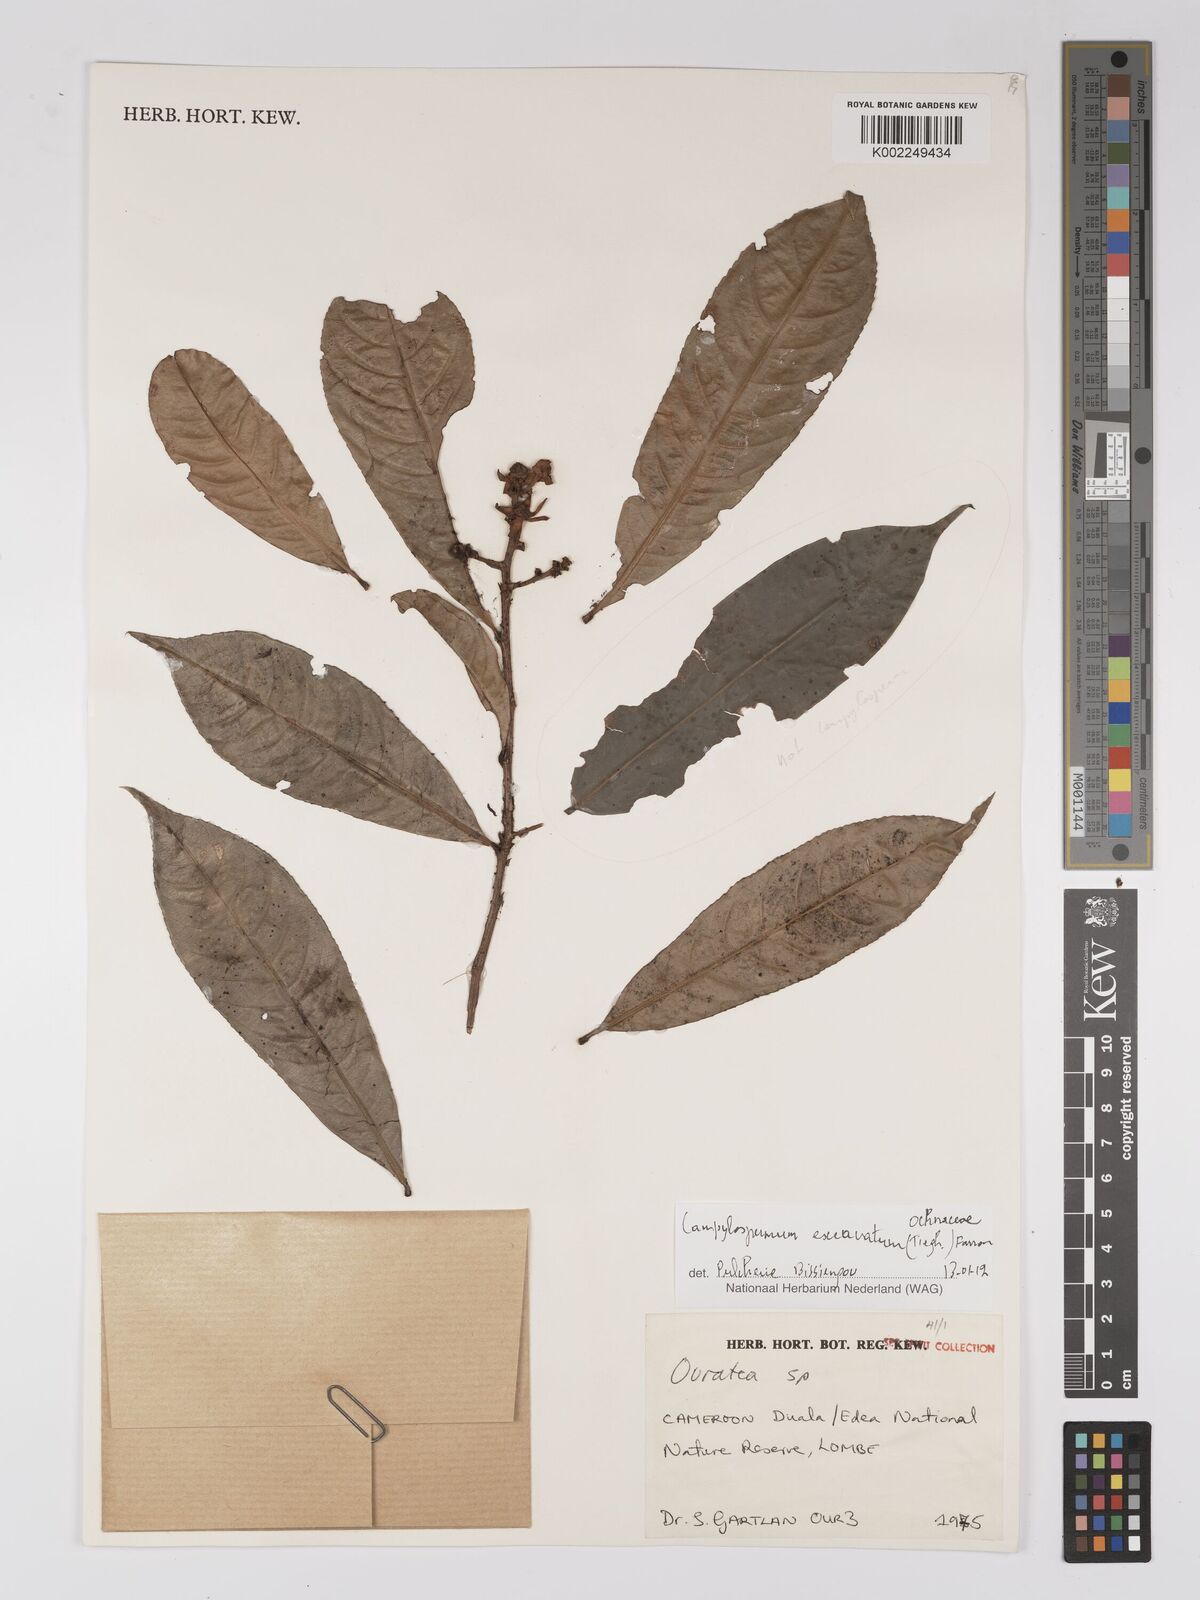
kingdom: Plantae
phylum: Tracheophyta
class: Magnoliopsida
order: Malpighiales
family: Ochnaceae
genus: Campylospermum
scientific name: Campylospermum excavatum
